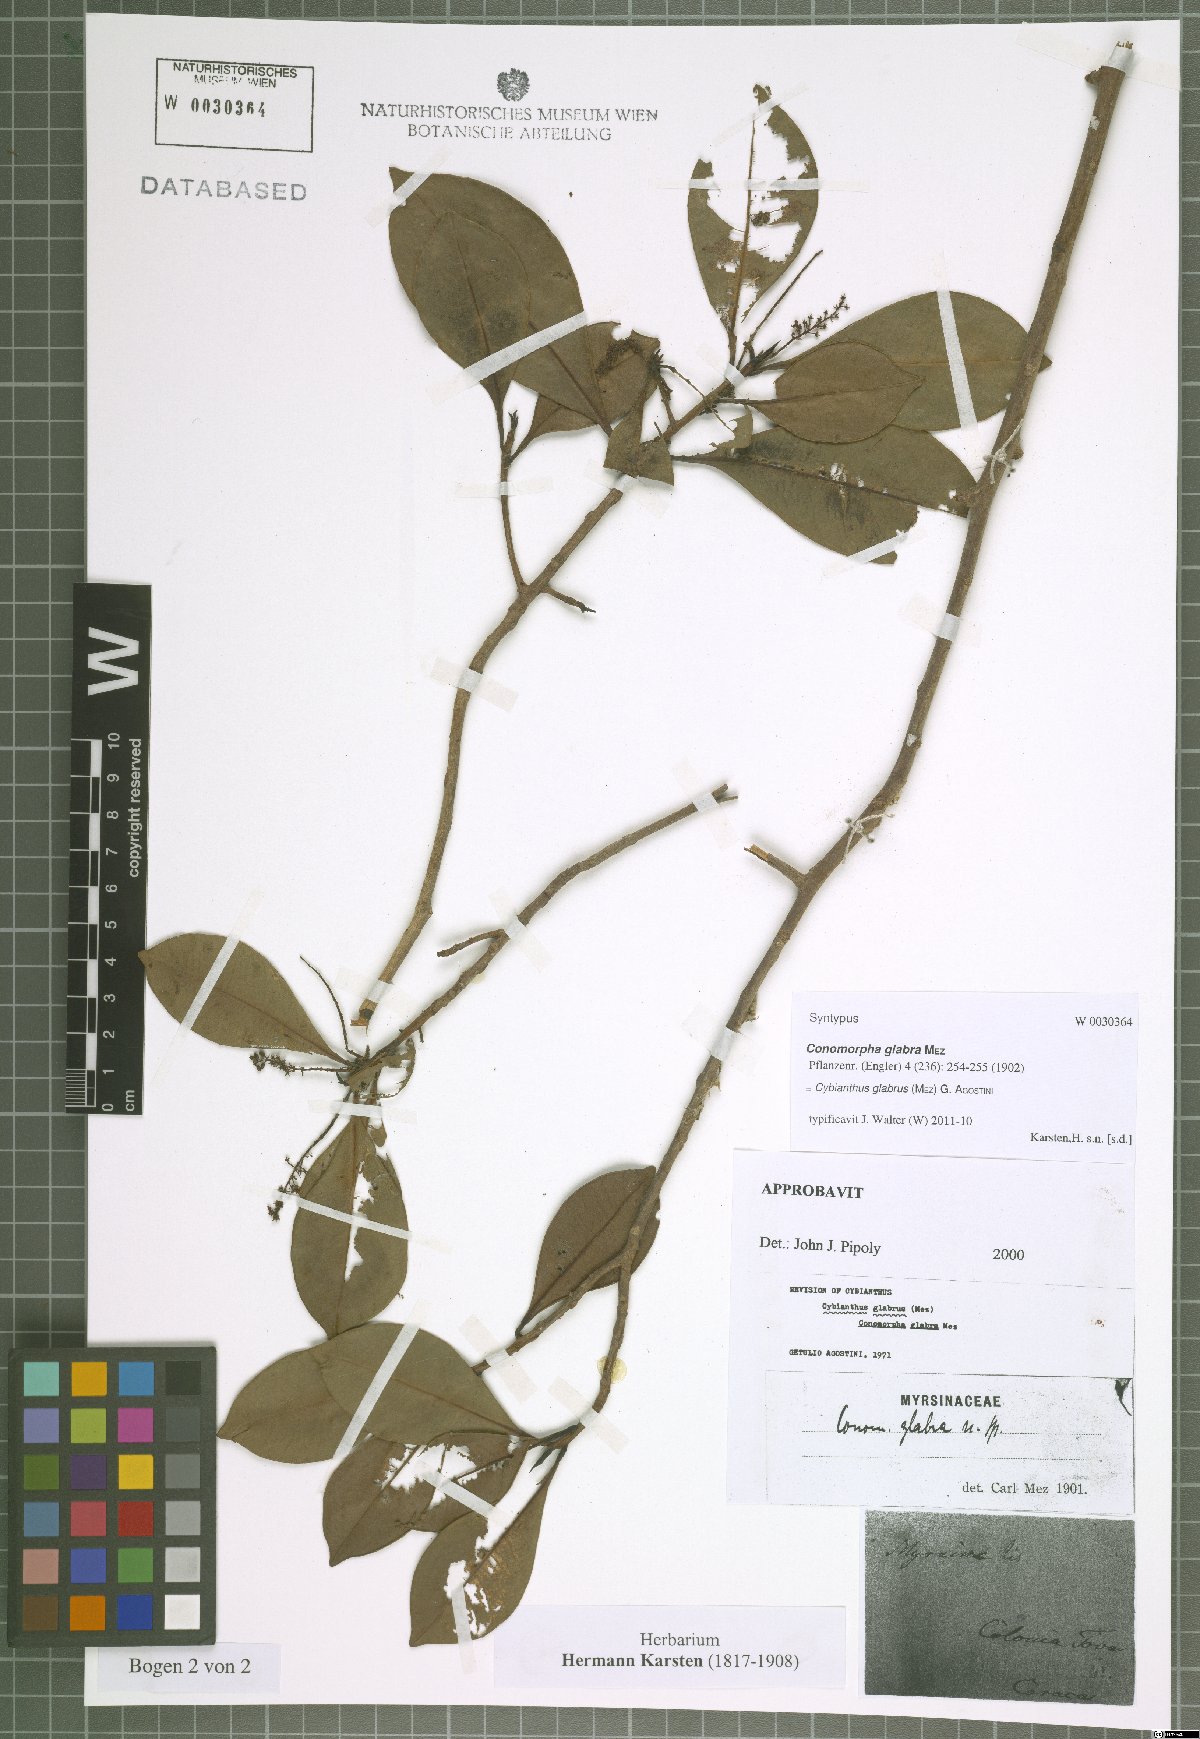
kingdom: Plantae
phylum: Tracheophyta
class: Magnoliopsida
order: Ericales
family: Primulaceae
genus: Cybianthus
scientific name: Cybianthus glabrus
